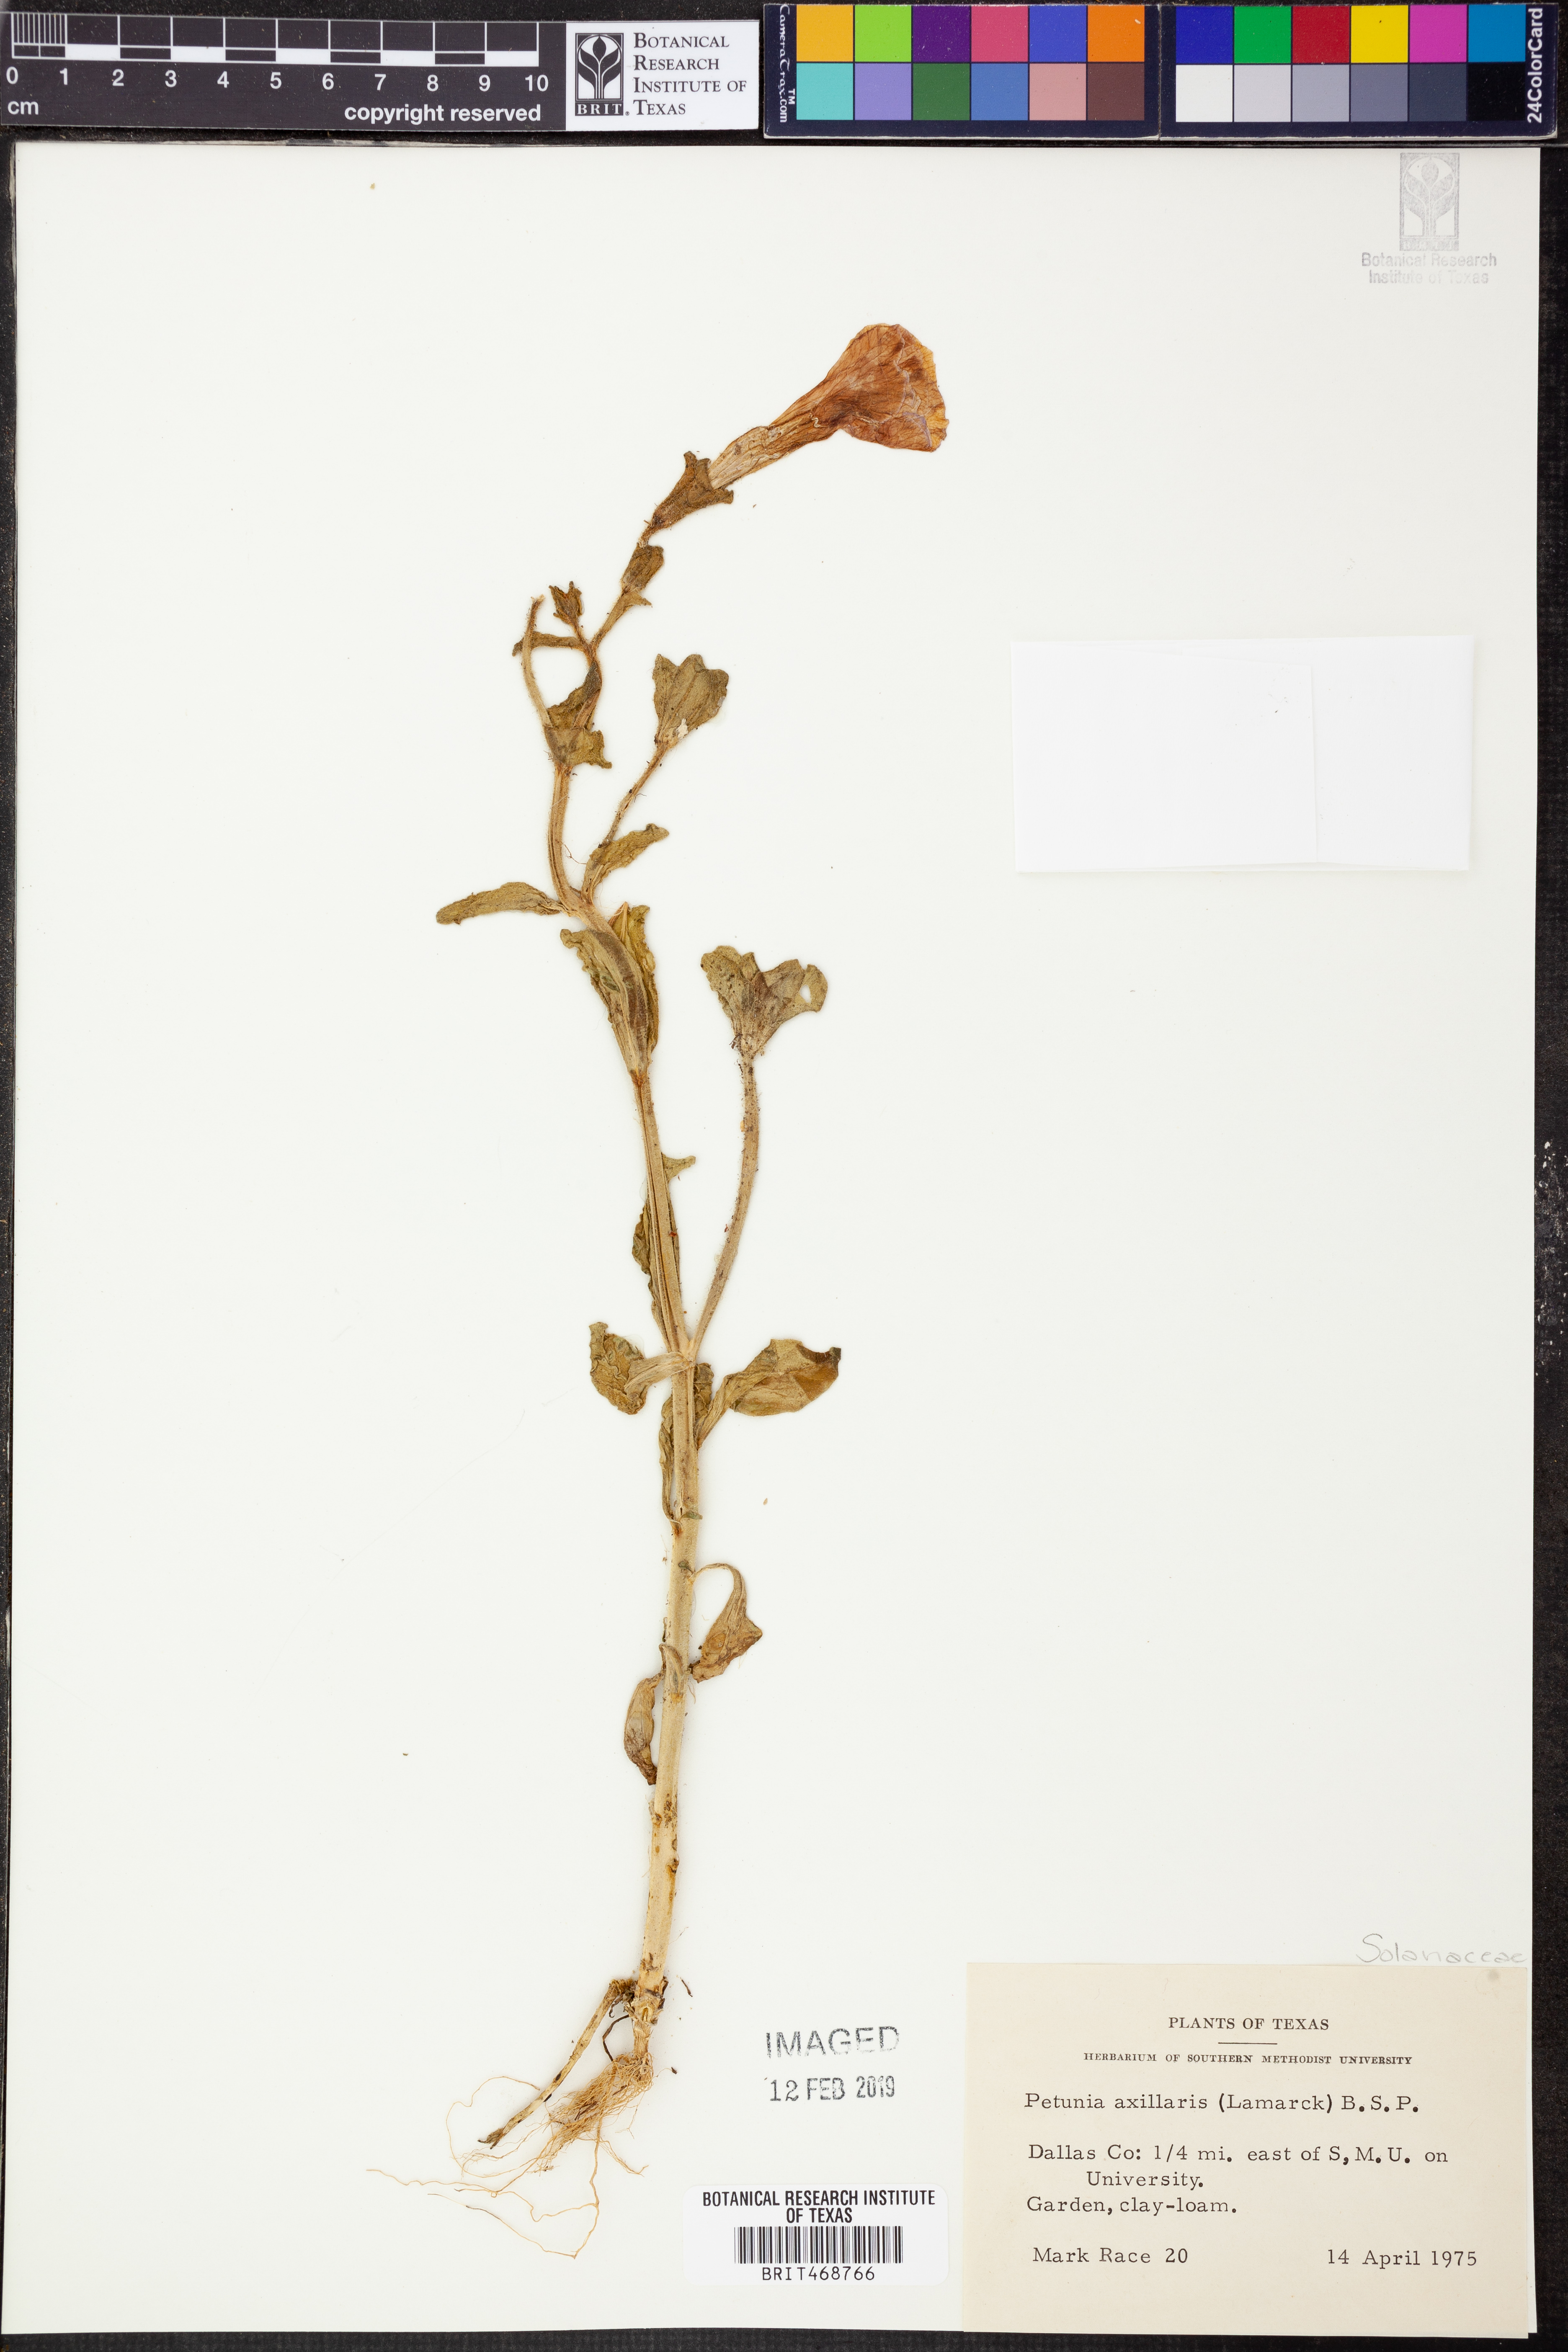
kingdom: Plantae
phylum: Tracheophyta
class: Magnoliopsida
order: Solanales
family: Solanaceae
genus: Petunia
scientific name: Petunia axillaris
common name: Large white petunia
